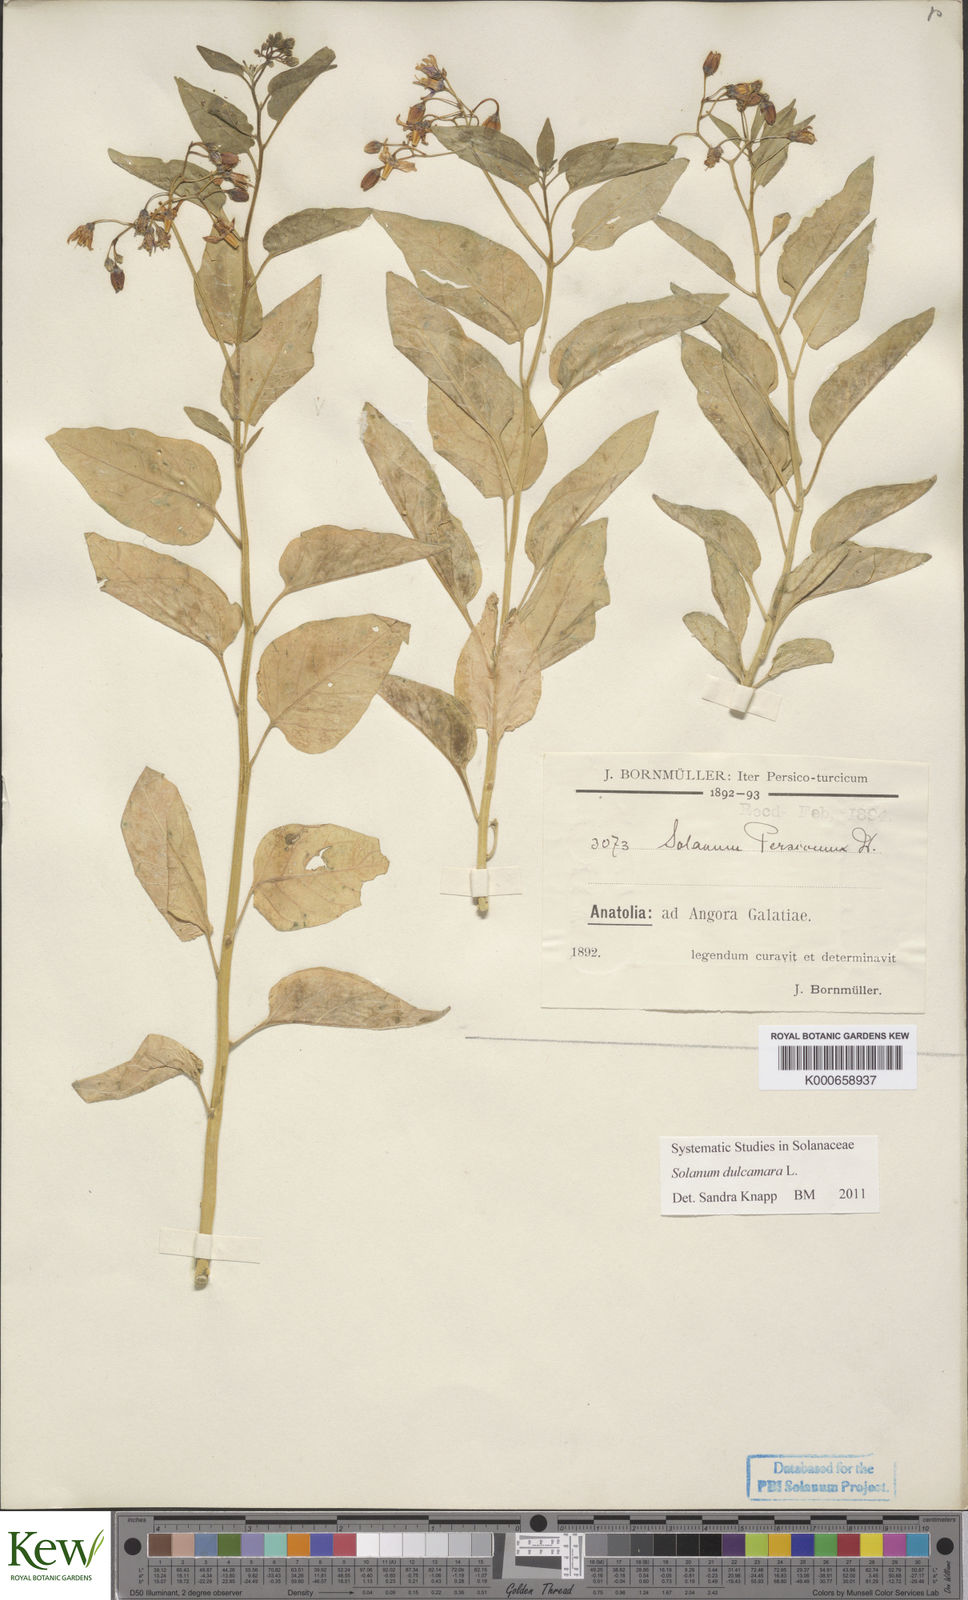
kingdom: Plantae
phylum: Tracheophyta
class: Magnoliopsida
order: Solanales
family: Solanaceae
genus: Solanum
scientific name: Solanum dulcamara
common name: Climbing nightshade
